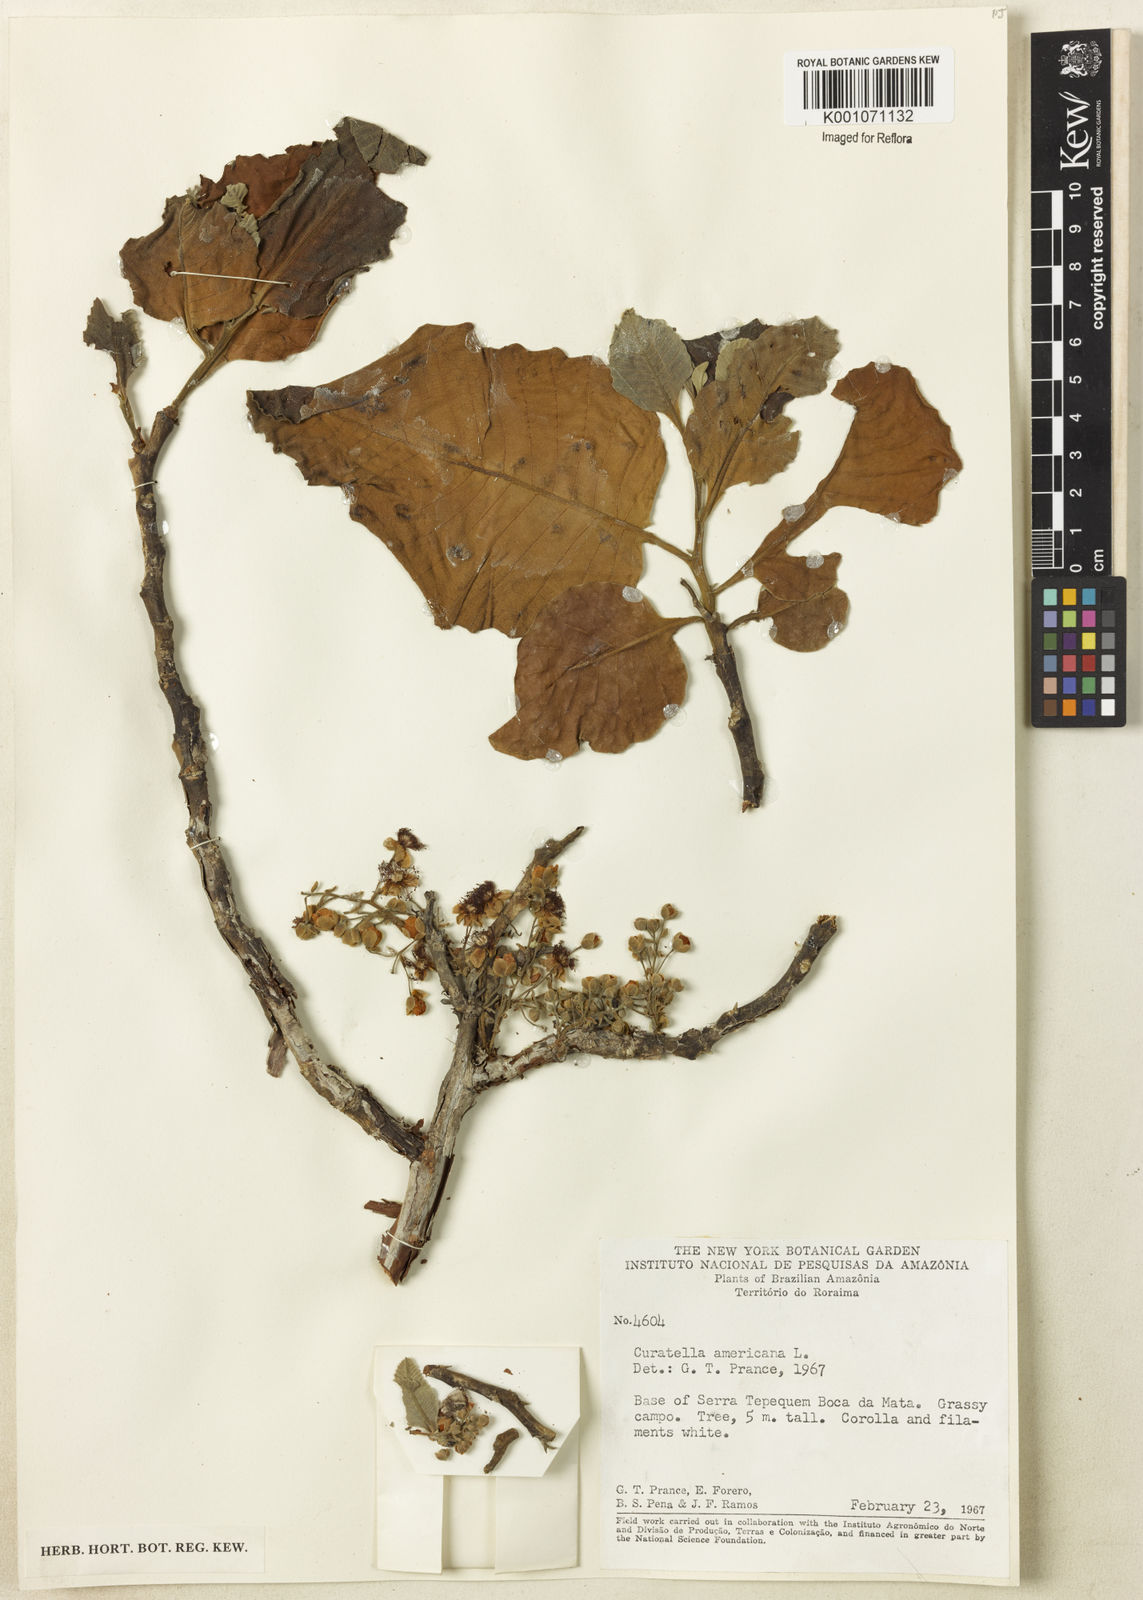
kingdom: Plantae
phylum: Tracheophyta
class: Magnoliopsida
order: Dilleniales
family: Dilleniaceae
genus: Curatella
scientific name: Curatella americana
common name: Sandpaper tree
